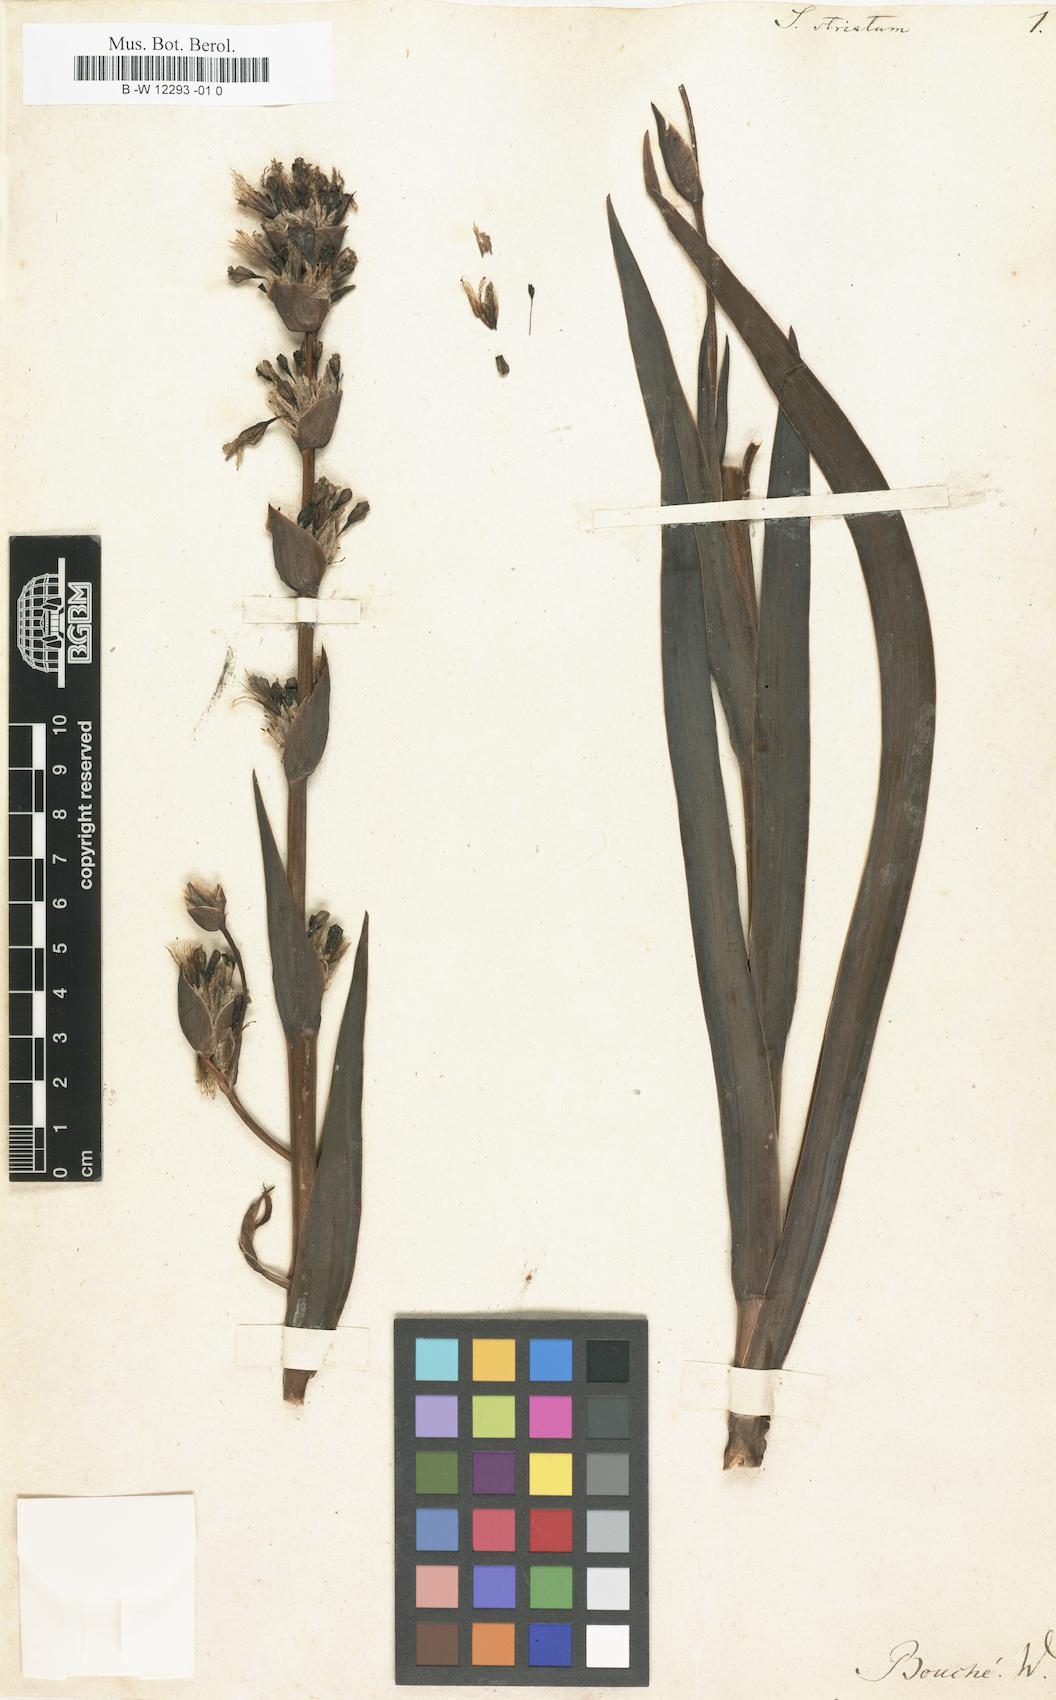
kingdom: Plantae
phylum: Tracheophyta
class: Liliopsida
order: Asparagales
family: Iridaceae
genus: Sisyrinchium
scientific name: Sisyrinchium striatum
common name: Pale yellow-eyed-grass
